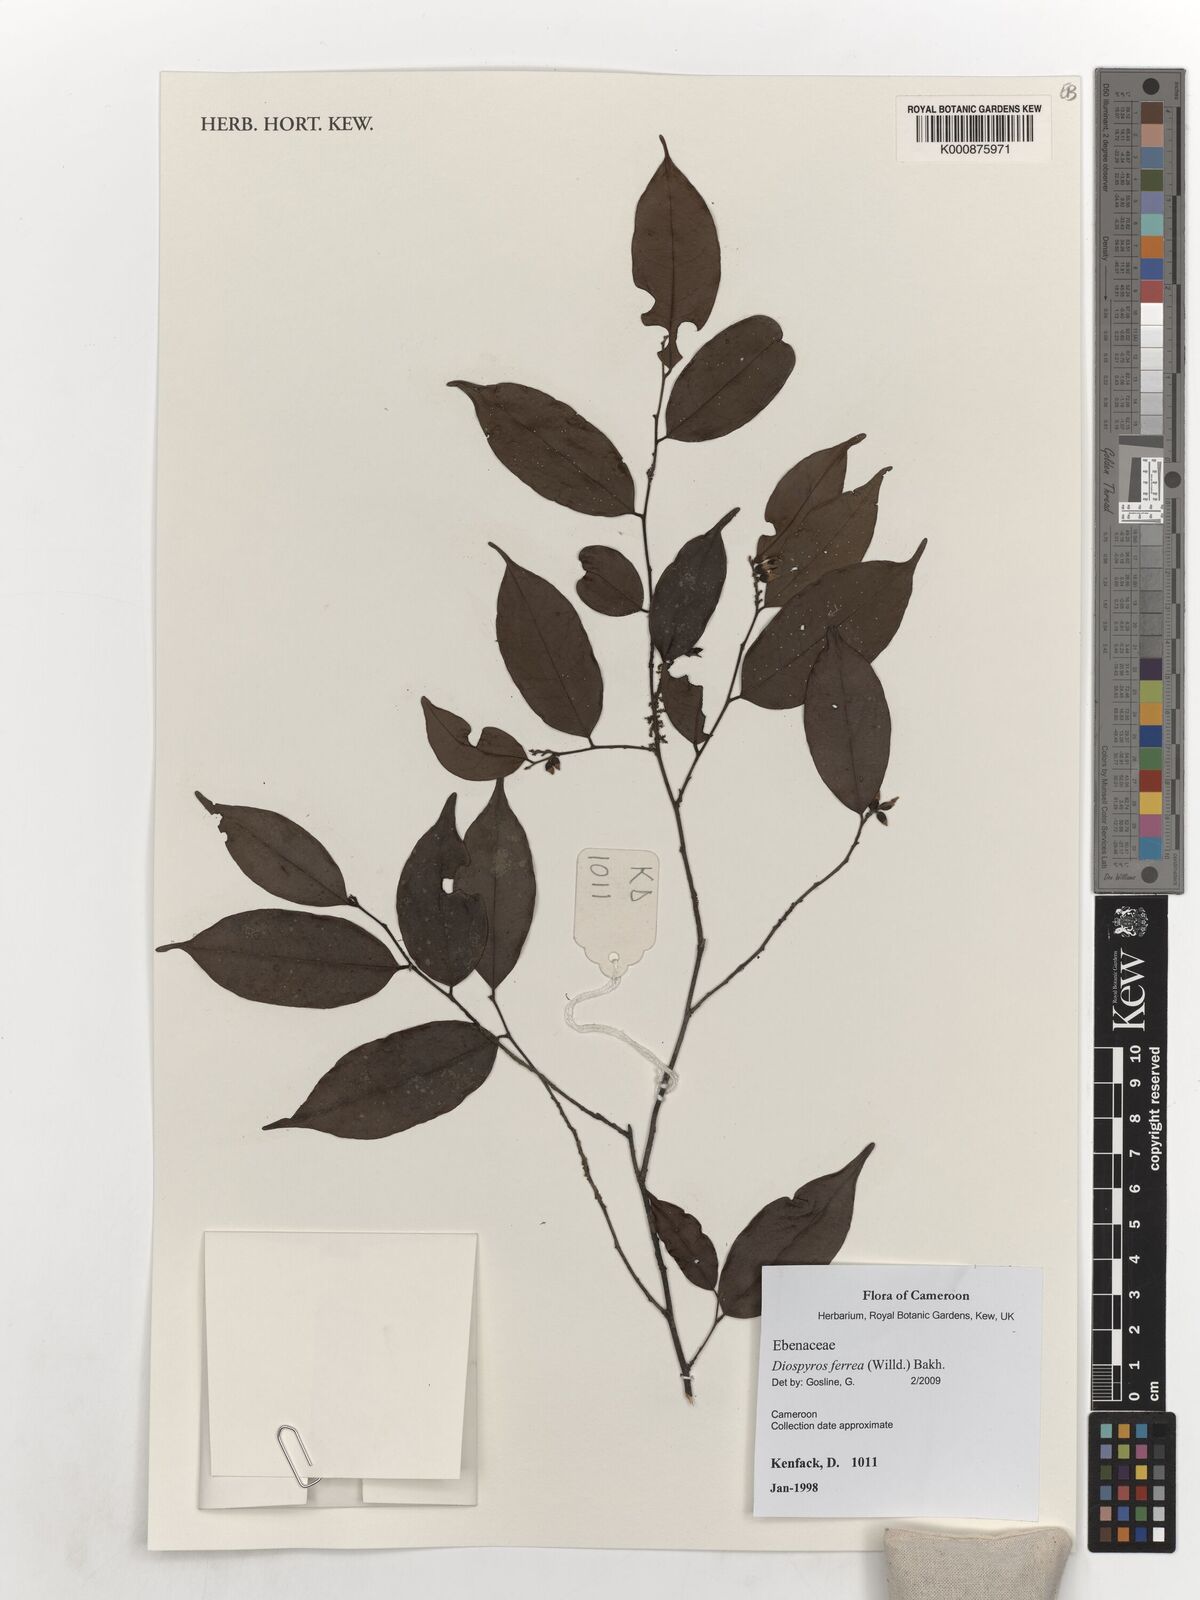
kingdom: Plantae
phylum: Tracheophyta
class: Magnoliopsida
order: Ericales
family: Ebenaceae
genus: Diospyros
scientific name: Diospyros ferrea
